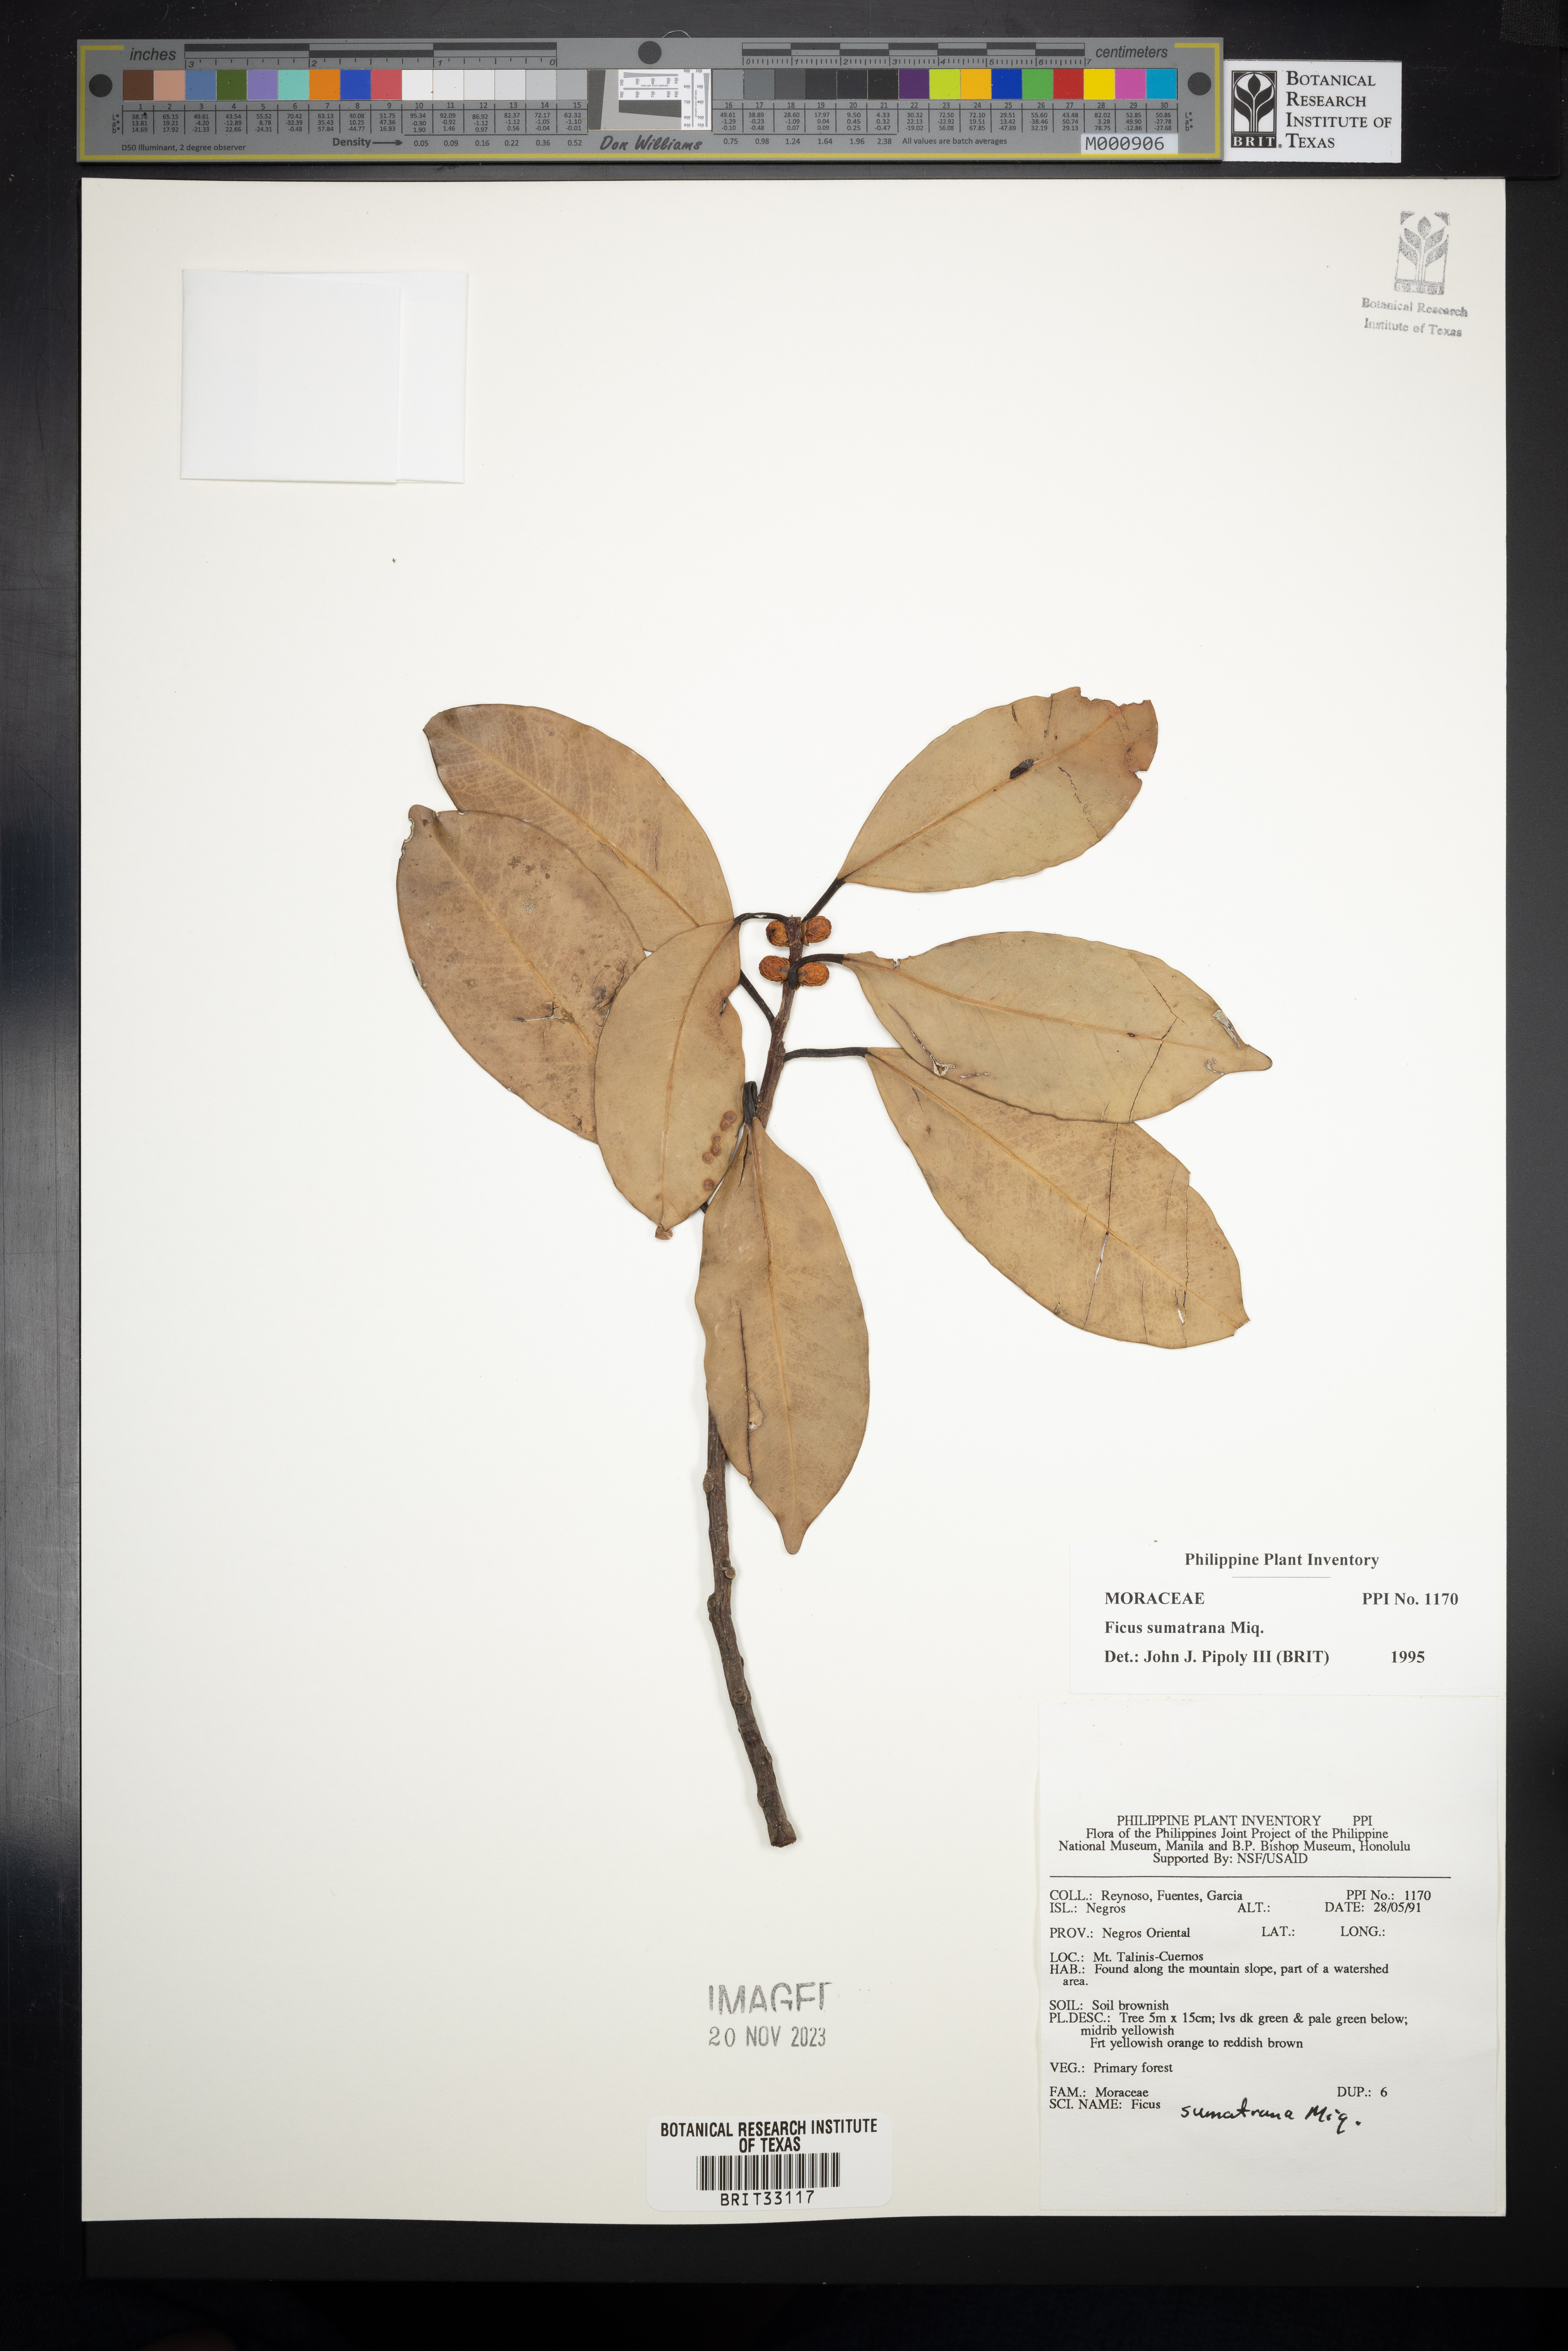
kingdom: Plantae
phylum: Tracheophyta
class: Magnoliopsida
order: Rosales
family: Moraceae
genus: Ficus
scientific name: Ficus sumatrana
